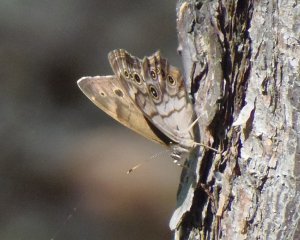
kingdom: Animalia
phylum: Arthropoda
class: Insecta
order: Lepidoptera
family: Nymphalidae
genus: Lethe
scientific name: Lethe anthedon
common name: Northern Pearly-Eye
